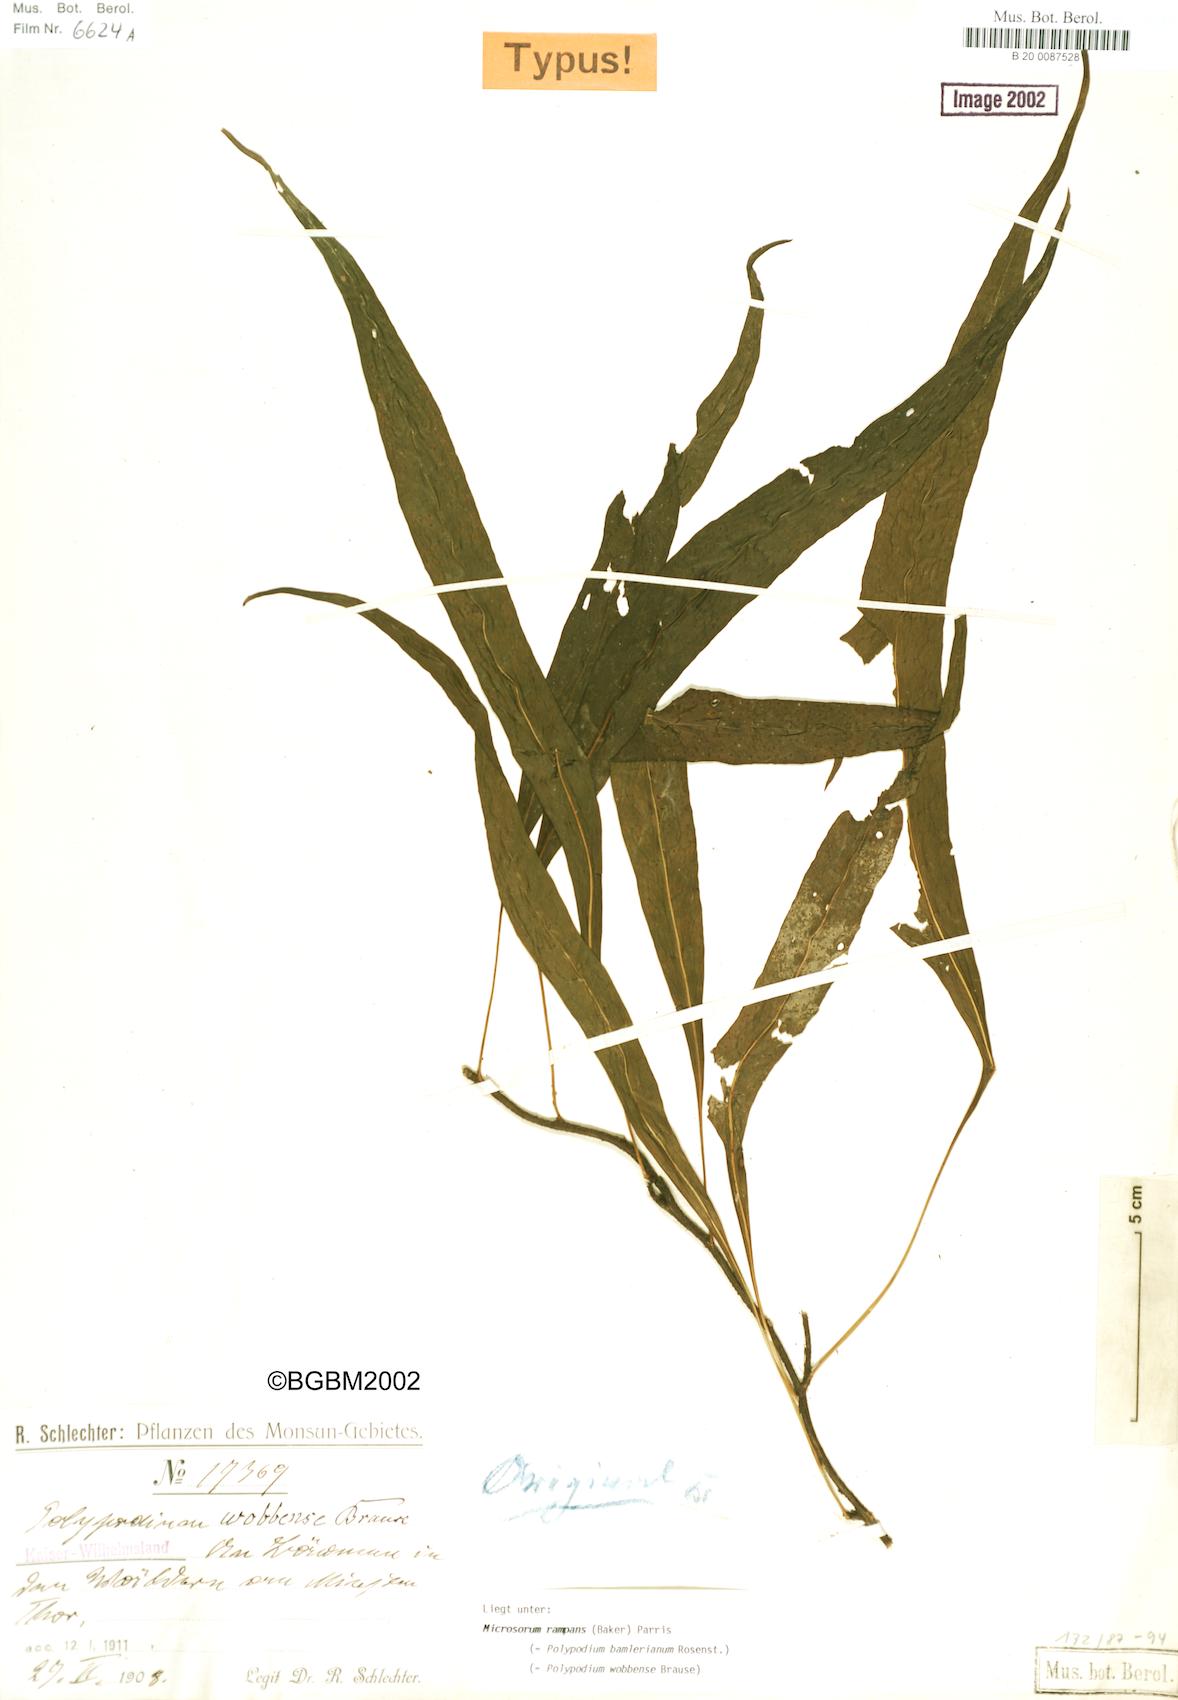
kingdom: Plantae
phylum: Tracheophyta
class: Polypodiopsida
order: Polypodiales
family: Polypodiaceae
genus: Microsorum
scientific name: Microsorum rampans
